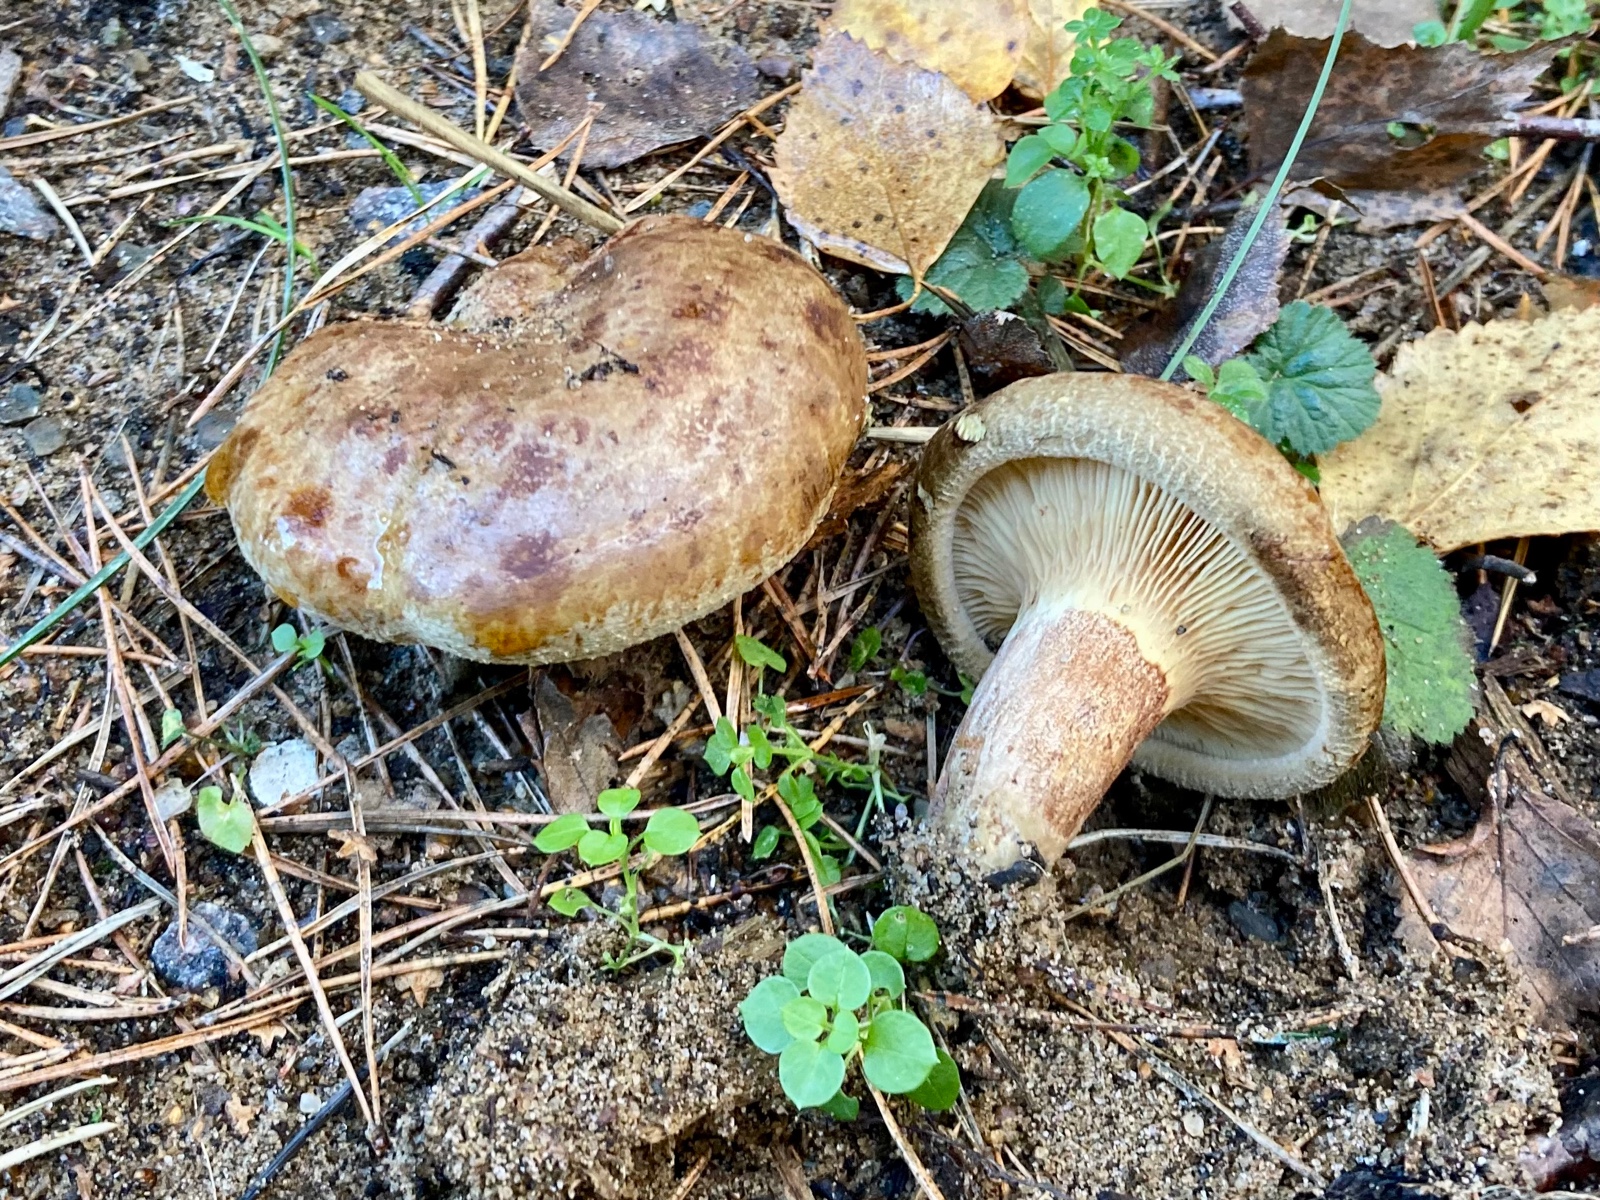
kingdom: Fungi
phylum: Basidiomycota
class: Agaricomycetes
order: Boletales
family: Paxillaceae
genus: Paxillus
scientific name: Paxillus involutus
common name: almindelig netbladhat
